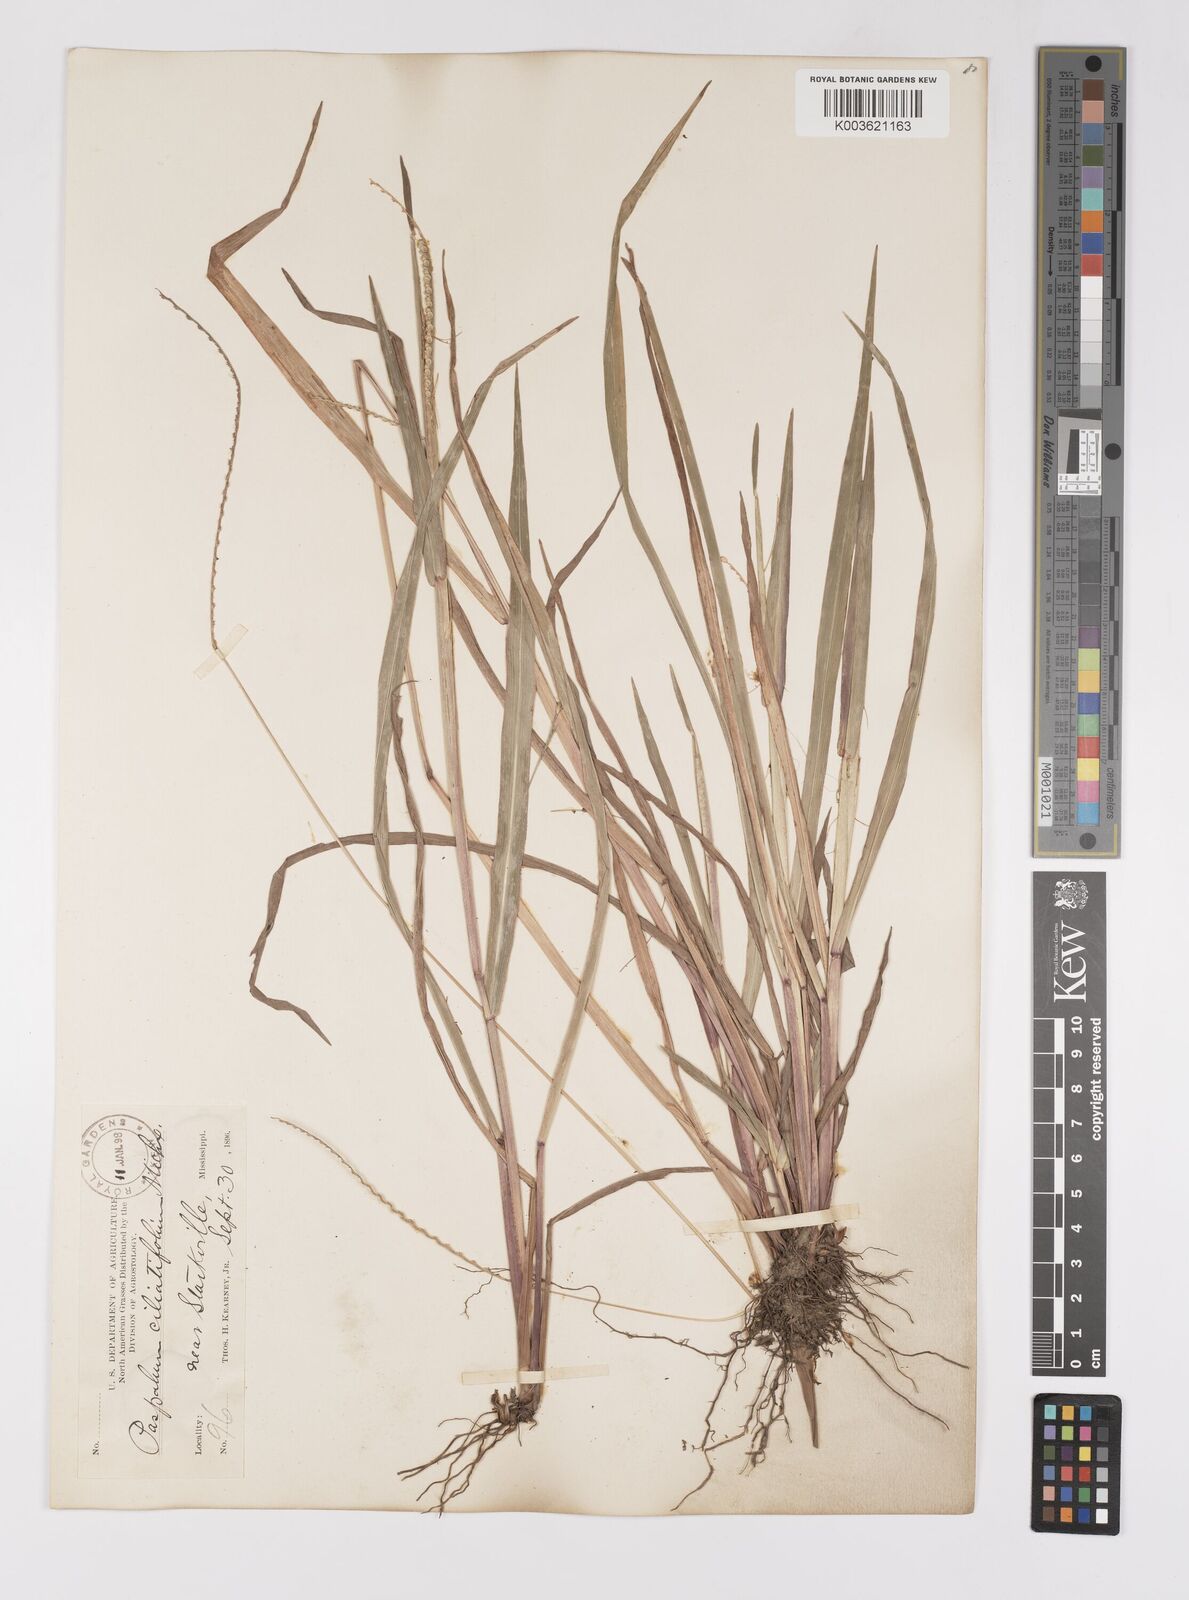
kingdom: Plantae
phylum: Tracheophyta
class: Liliopsida
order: Poales
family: Poaceae
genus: Paspalum
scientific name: Paspalum setaceum
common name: Slender paspalum
